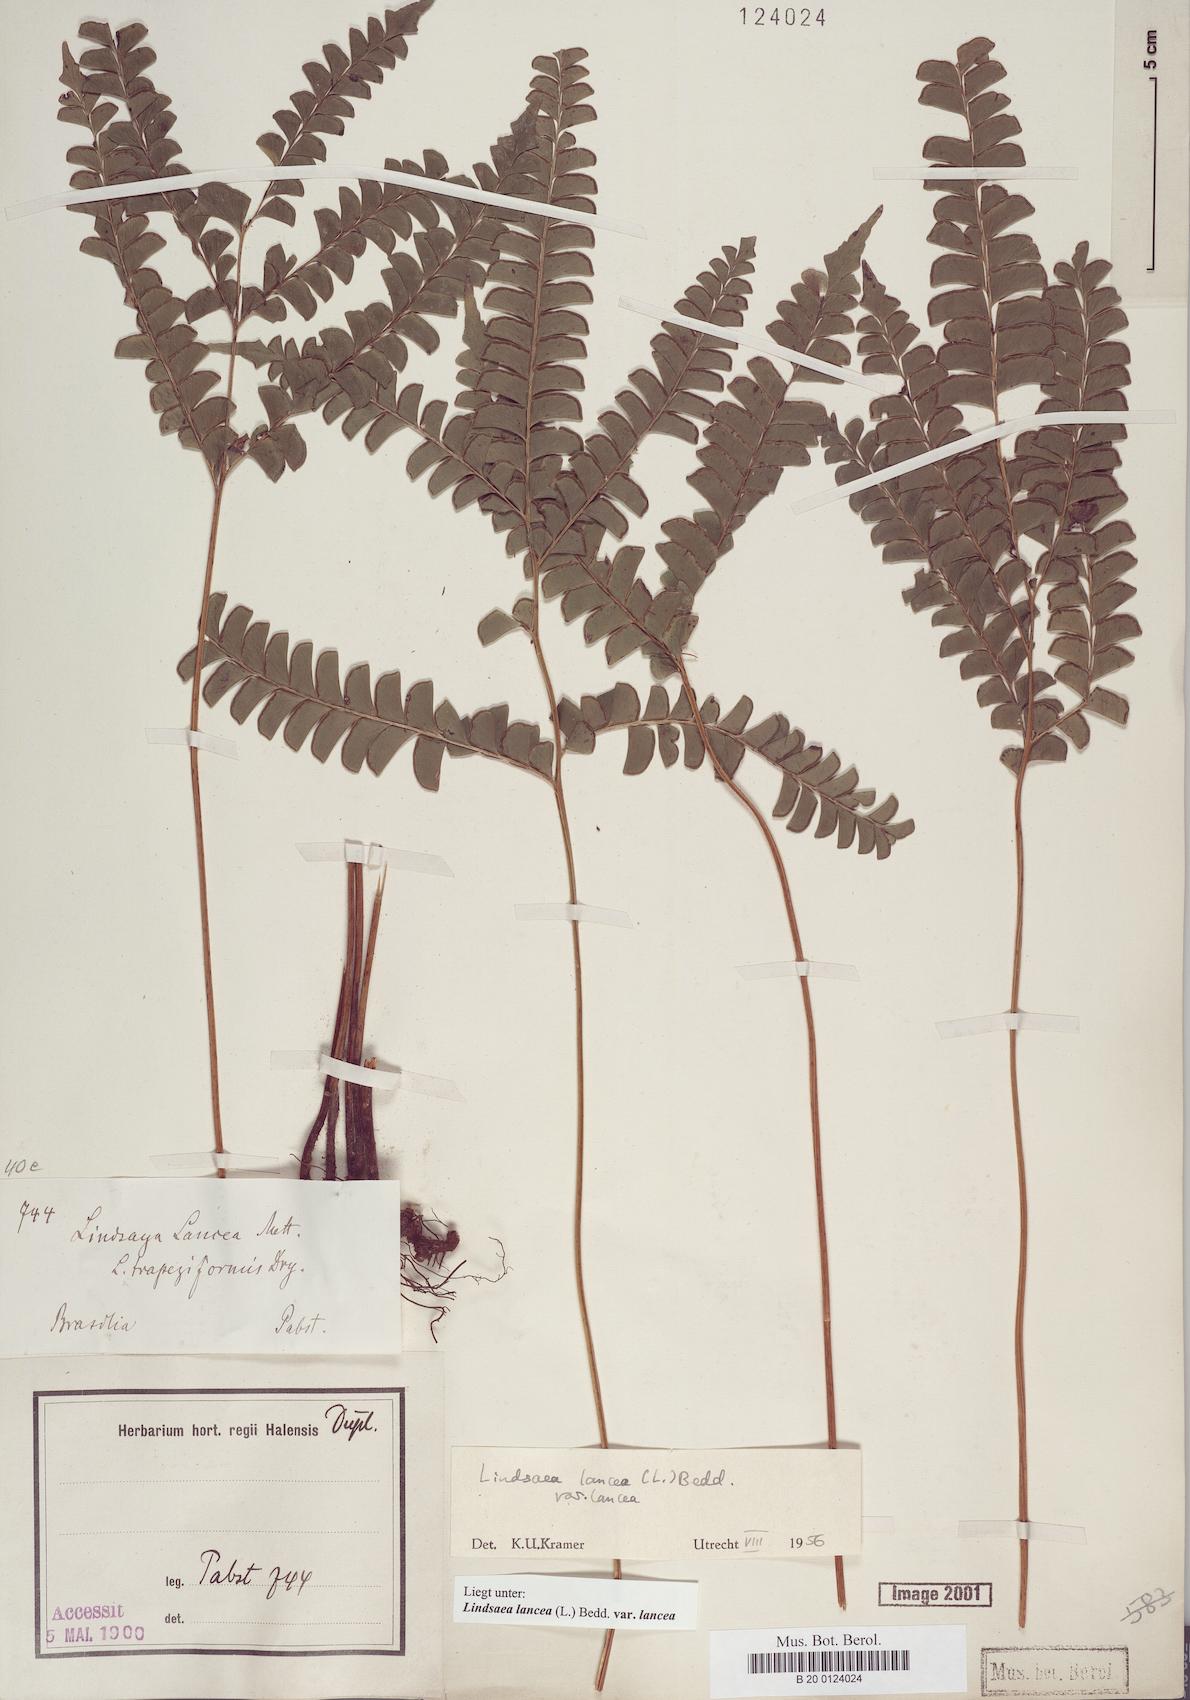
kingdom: Plantae
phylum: Tracheophyta
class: Polypodiopsida
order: Polypodiales
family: Lindsaeaceae
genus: Lindsaea
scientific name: Lindsaea lancea
